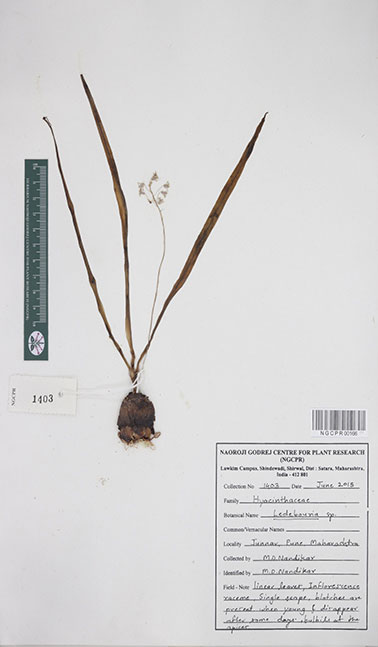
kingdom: Plantae
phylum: Tracheophyta
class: Liliopsida
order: Asparagales
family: Asparagaceae
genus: Ledebouria
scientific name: Ledebouria
